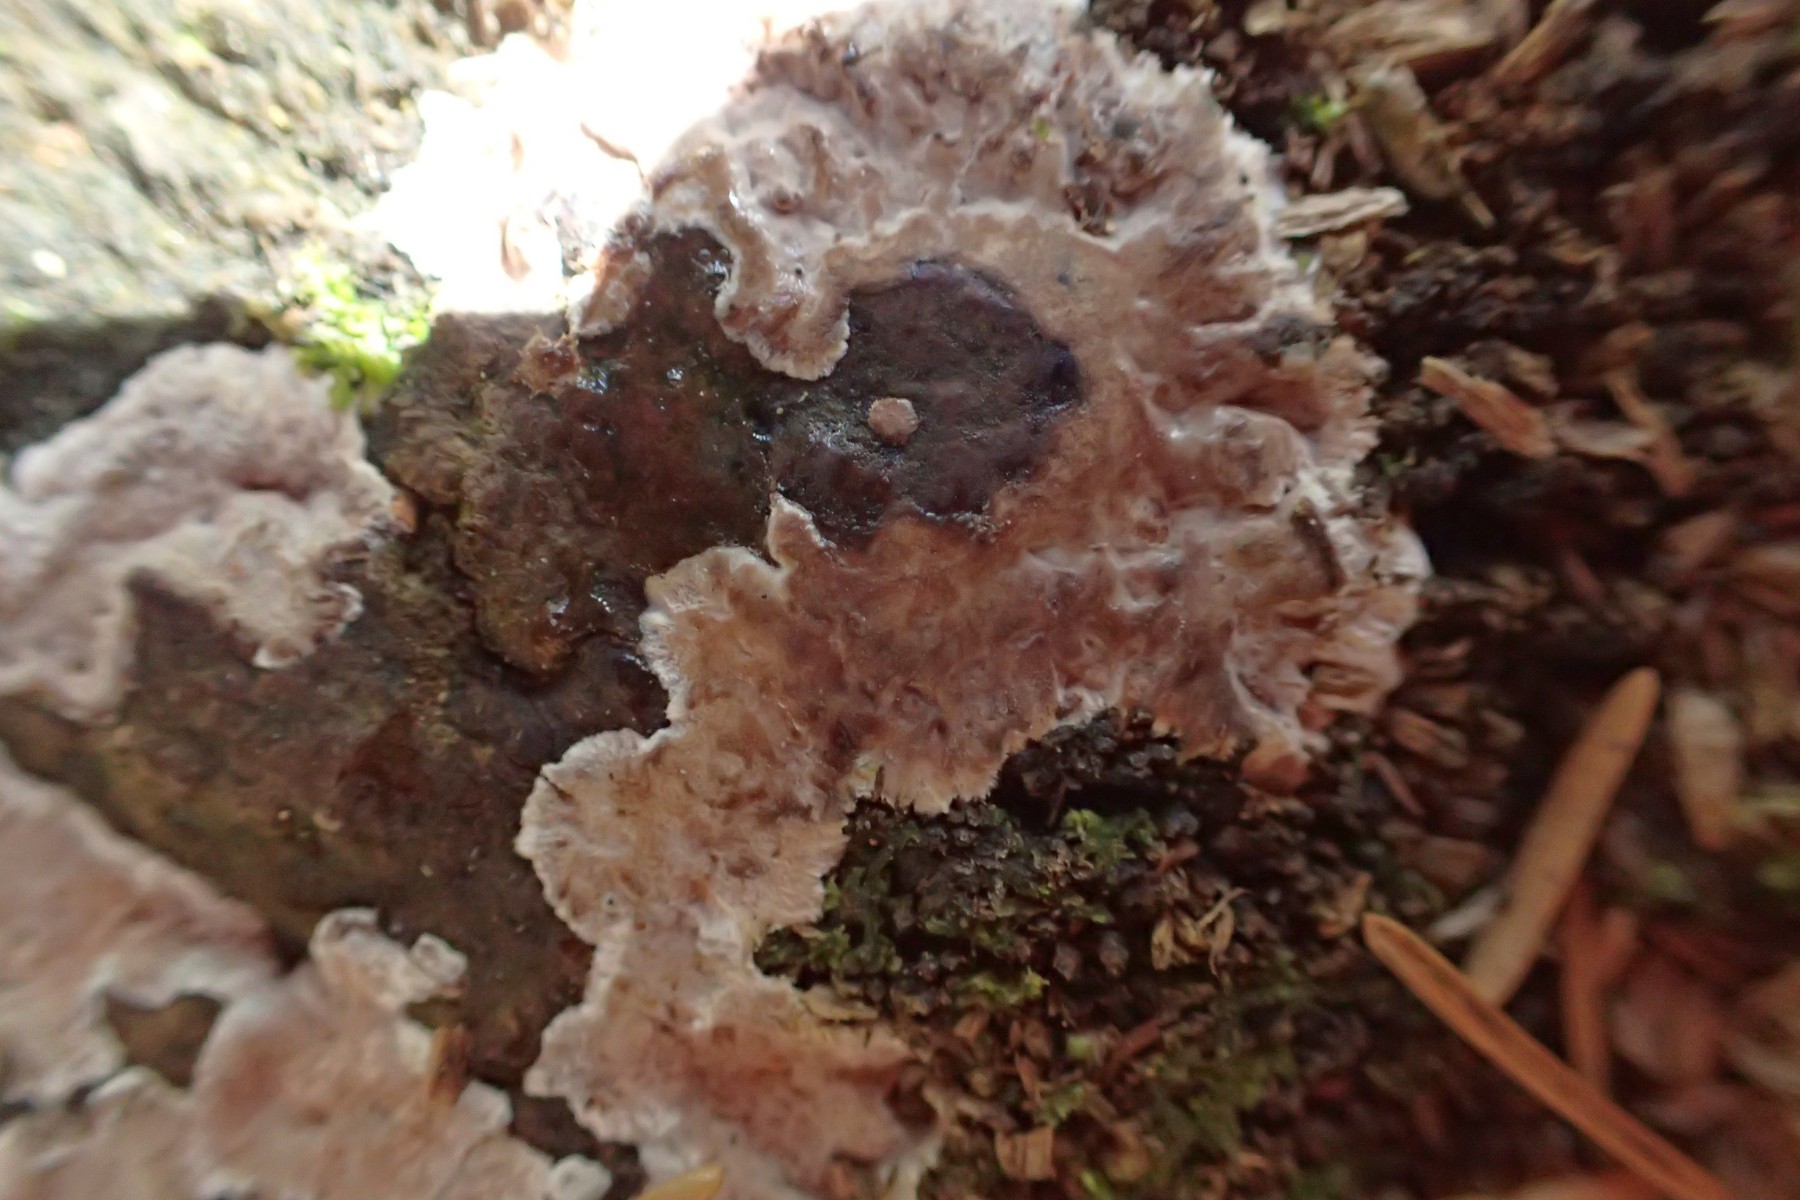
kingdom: Fungi
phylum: Basidiomycota
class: Agaricomycetes
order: Corticiales
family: Corticiaceae
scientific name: Corticiaceae
